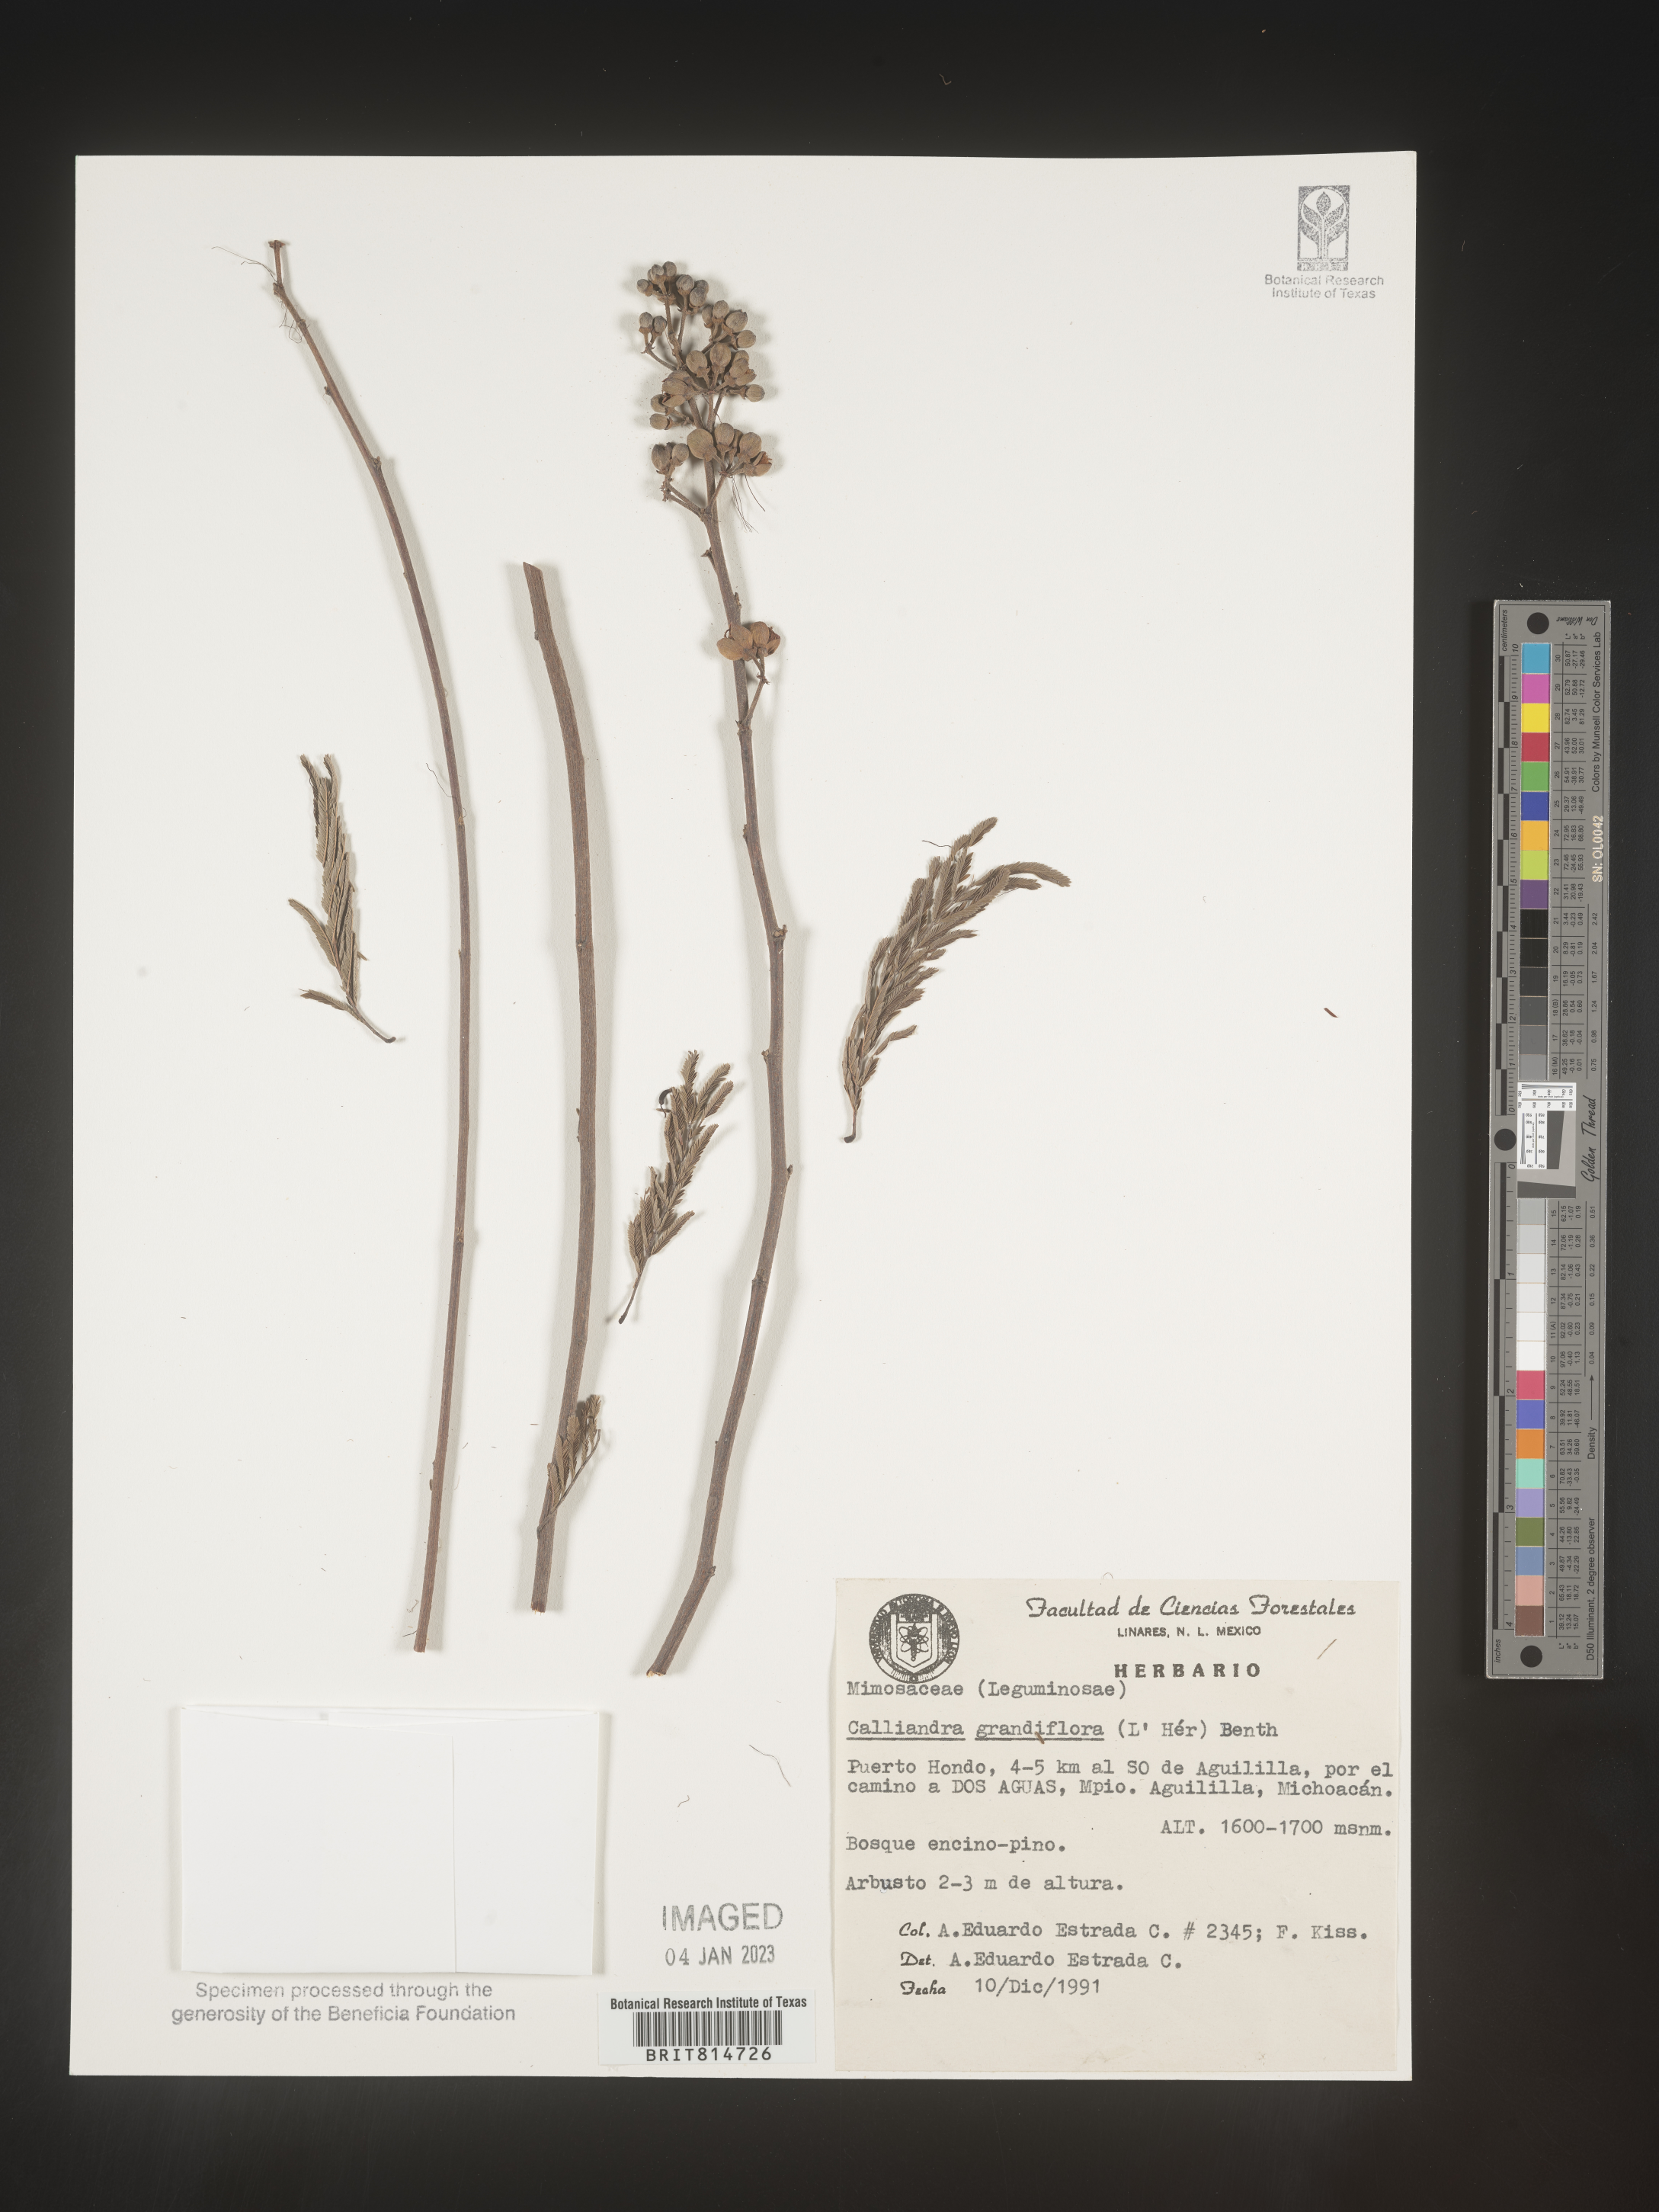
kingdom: Plantae
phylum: Tracheophyta
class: Magnoliopsida
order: Fabales
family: Fabaceae
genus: Calliandra
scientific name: Calliandra
